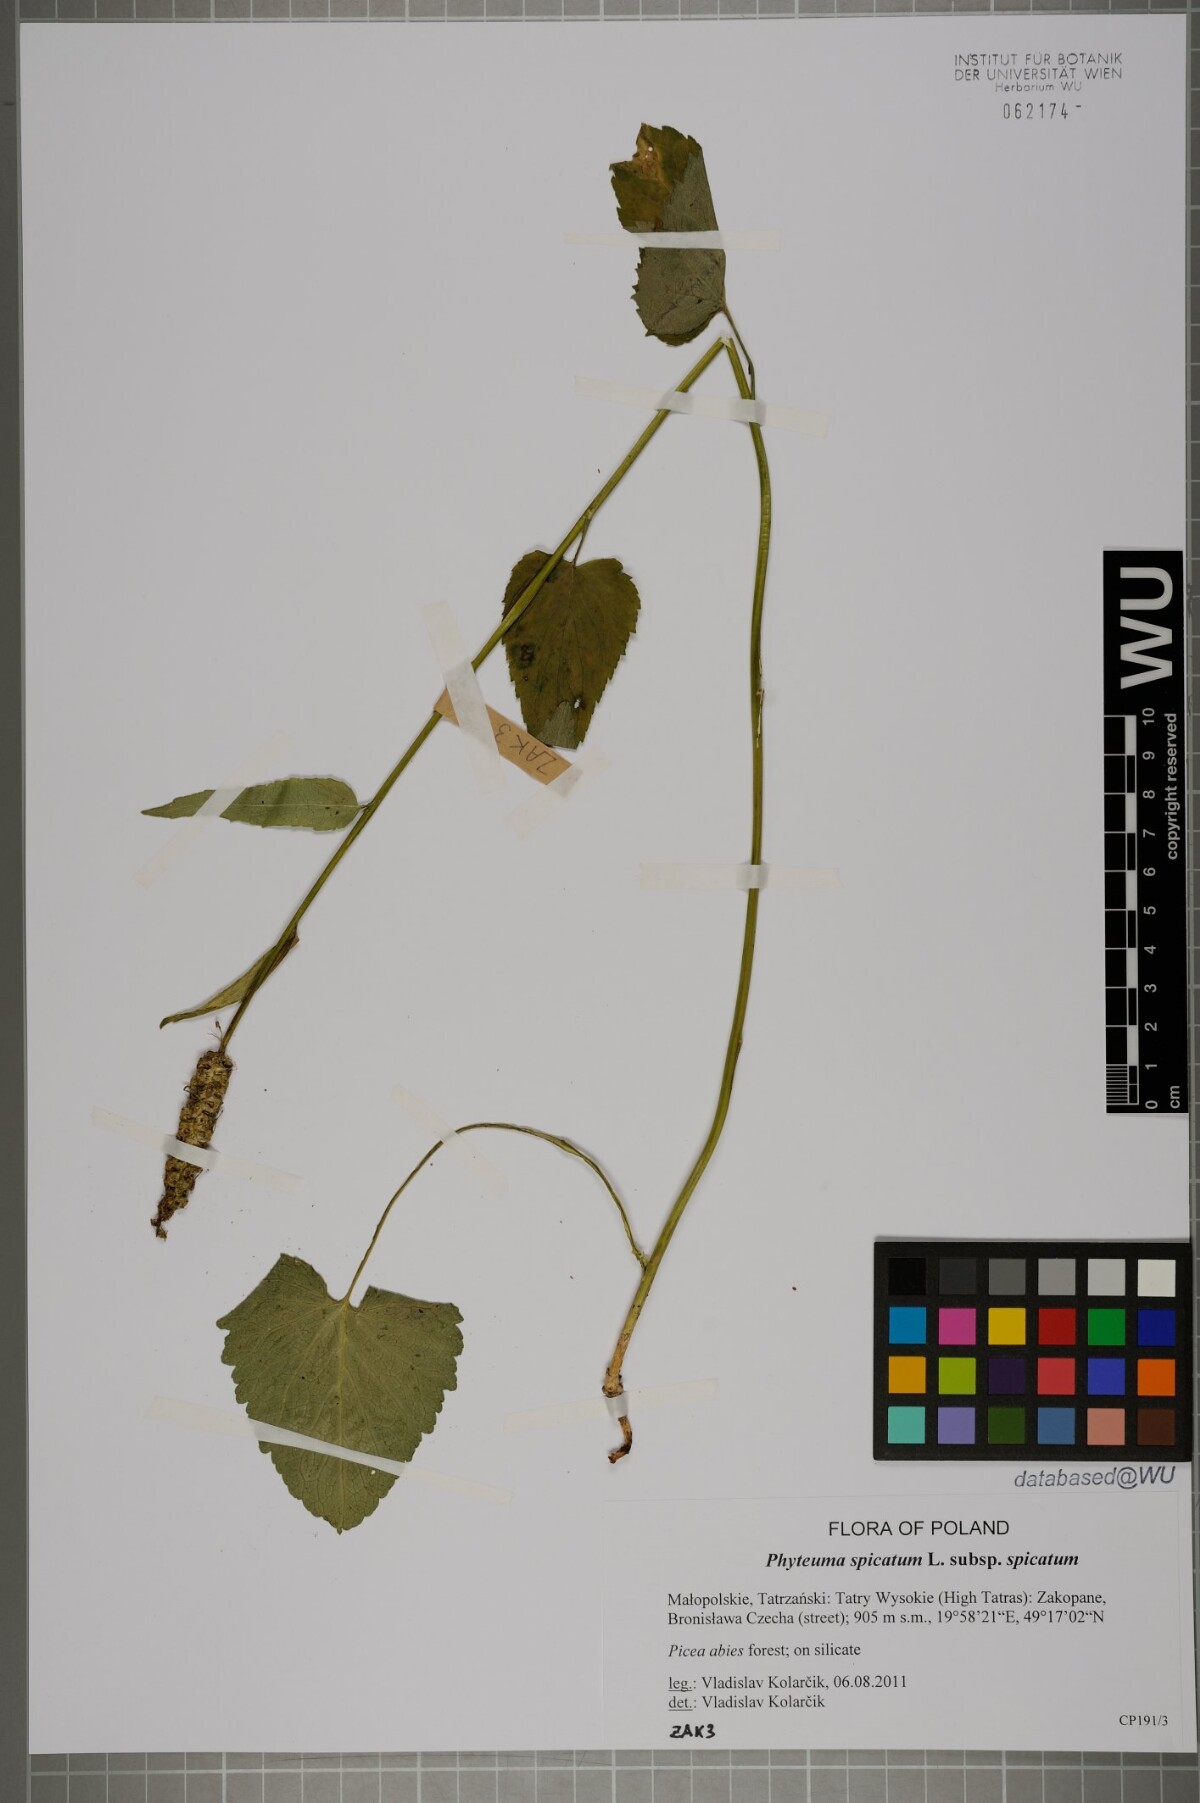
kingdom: Plantae
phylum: Tracheophyta
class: Magnoliopsida
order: Asterales
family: Campanulaceae
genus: Phyteuma
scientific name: Phyteuma spicatum
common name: Spiked rampion
